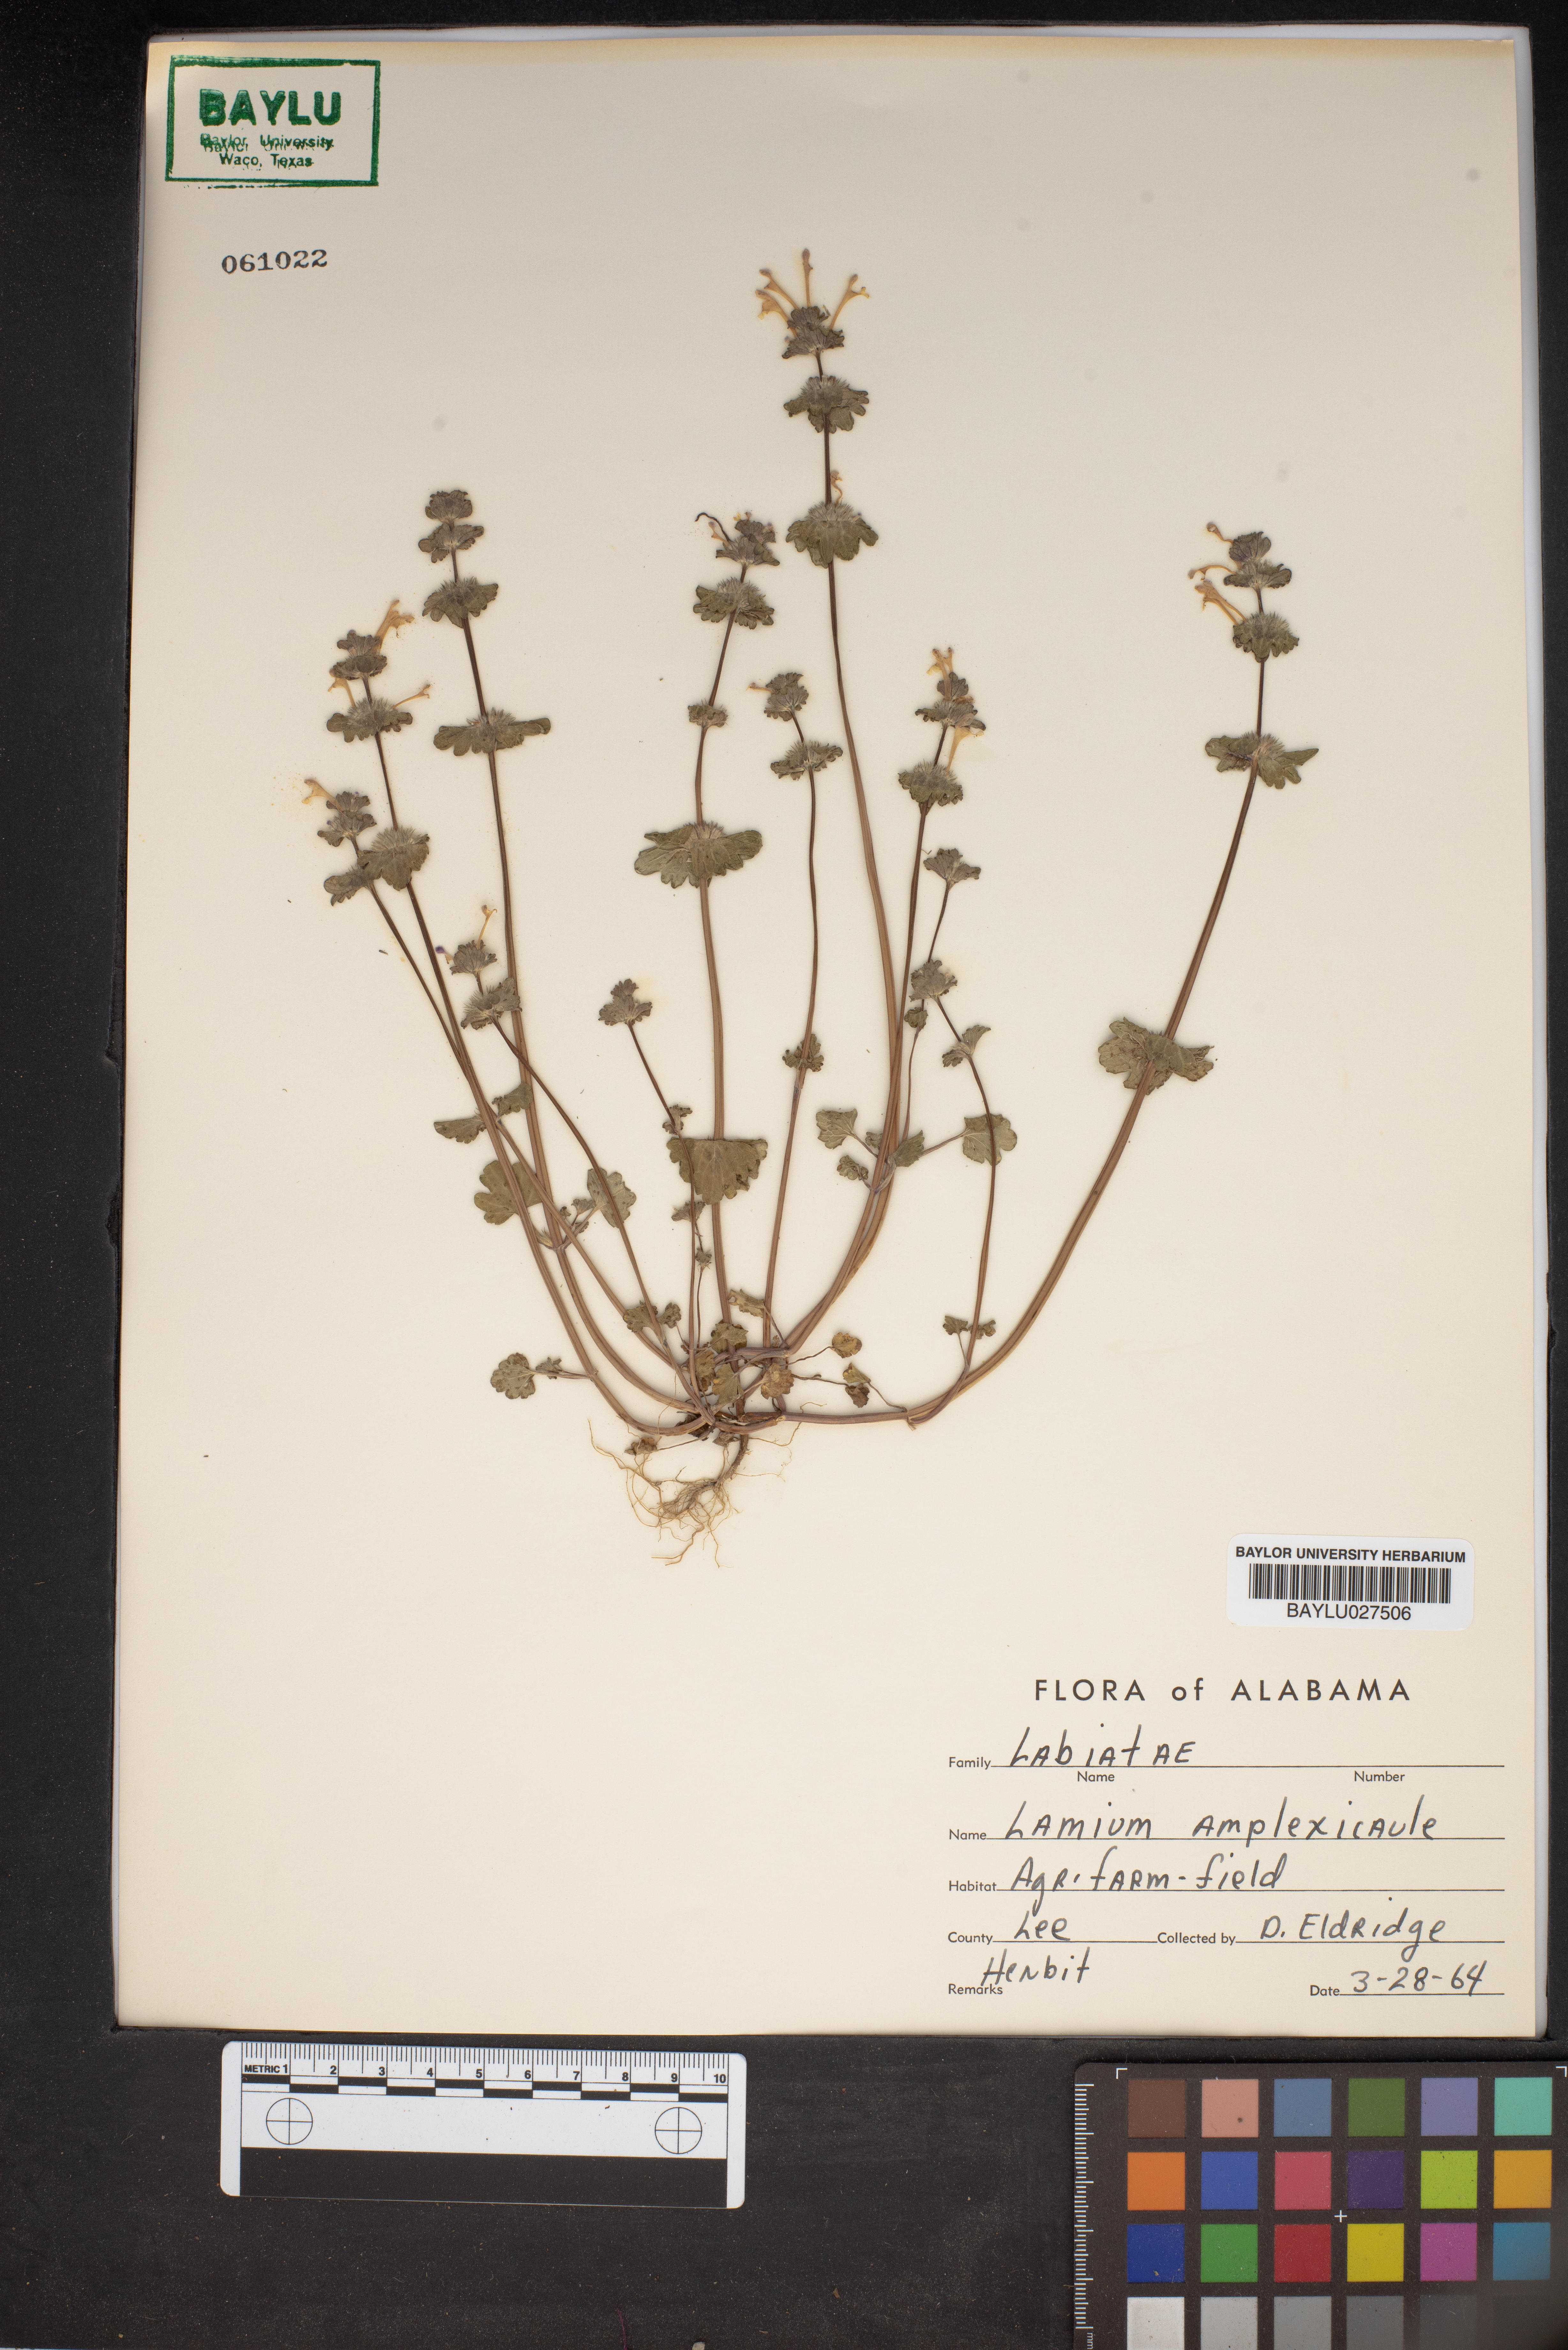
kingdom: Plantae
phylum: Tracheophyta
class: Magnoliopsida
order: Lamiales
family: Lamiaceae
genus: Lamium
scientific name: Lamium amplexicaule
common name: Henbit dead-nettle
